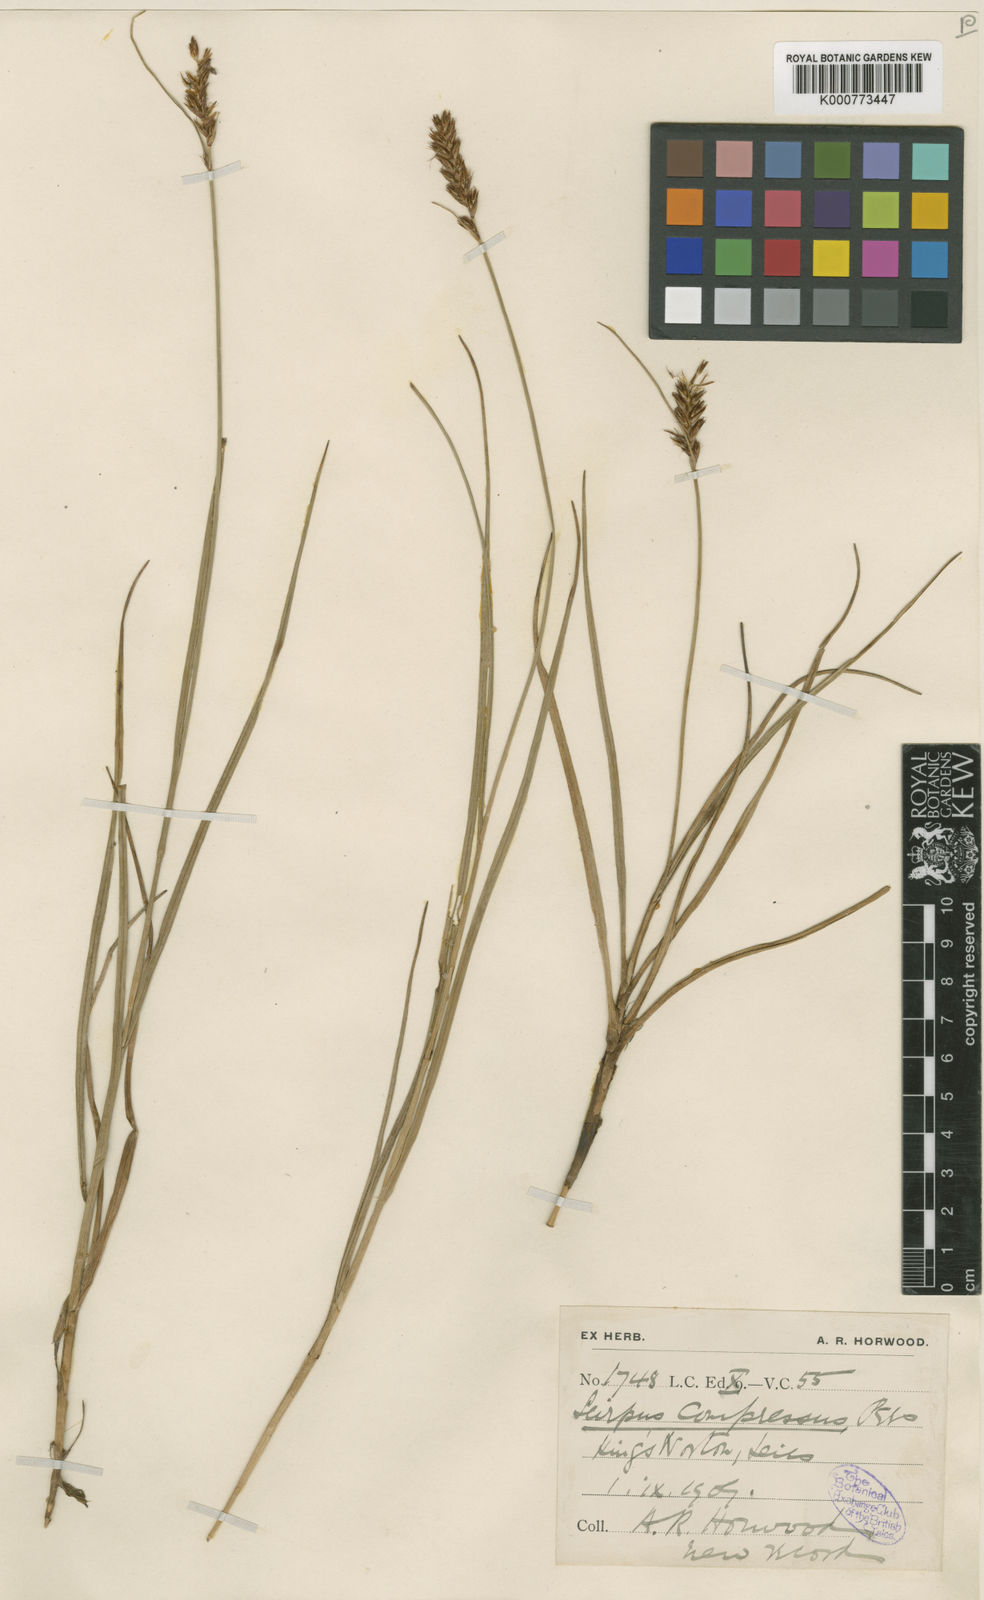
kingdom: Plantae
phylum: Tracheophyta
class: Liliopsida
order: Poales
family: Cyperaceae
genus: Blysmus
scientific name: Blysmus compressus
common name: Flat-sedge
